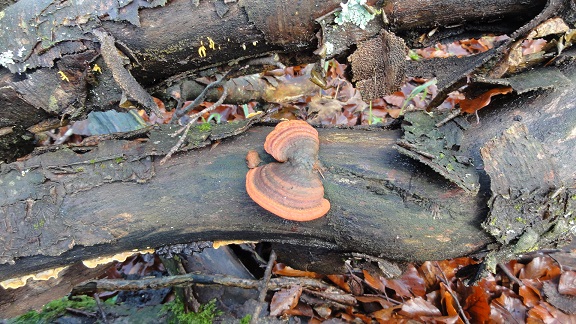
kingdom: Fungi
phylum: Basidiomycota
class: Agaricomycetes
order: Polyporales
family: Polyporaceae
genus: Trametes
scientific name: Trametes cinnabarina
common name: cinnoberporesvamp
